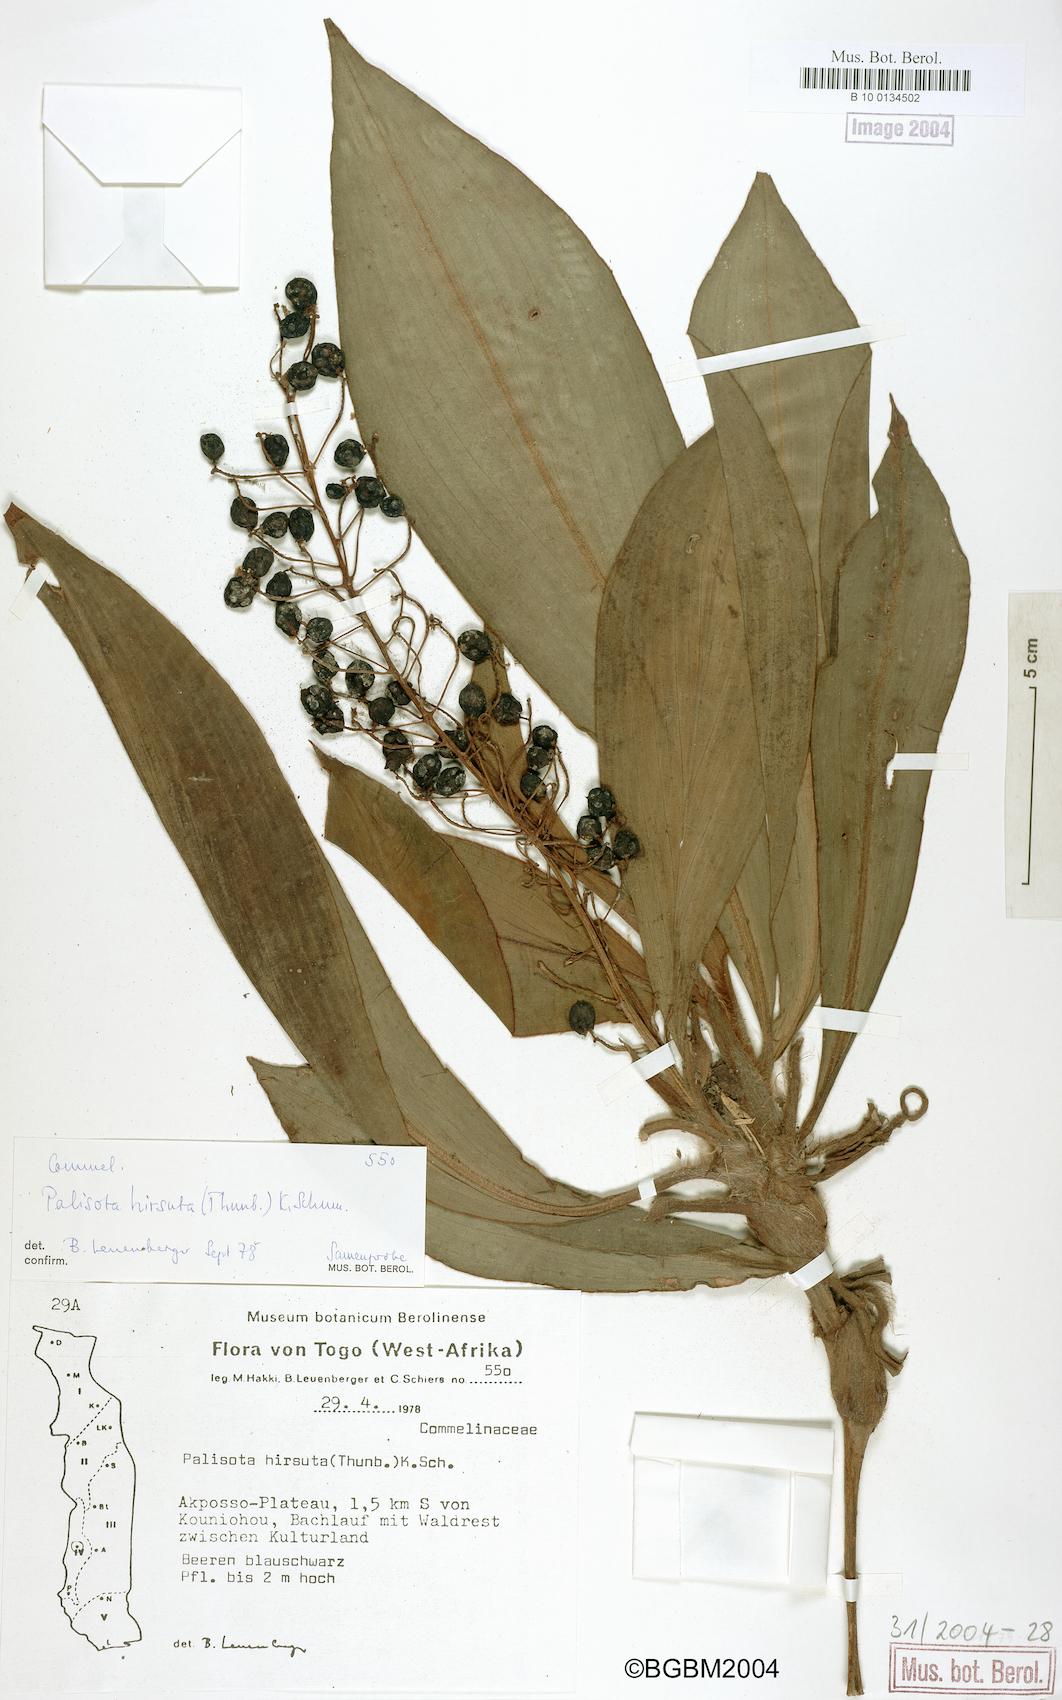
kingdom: Plantae
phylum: Tracheophyta
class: Liliopsida
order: Commelinales
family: Commelinaceae
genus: Palisota
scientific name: Palisota hirsuta
